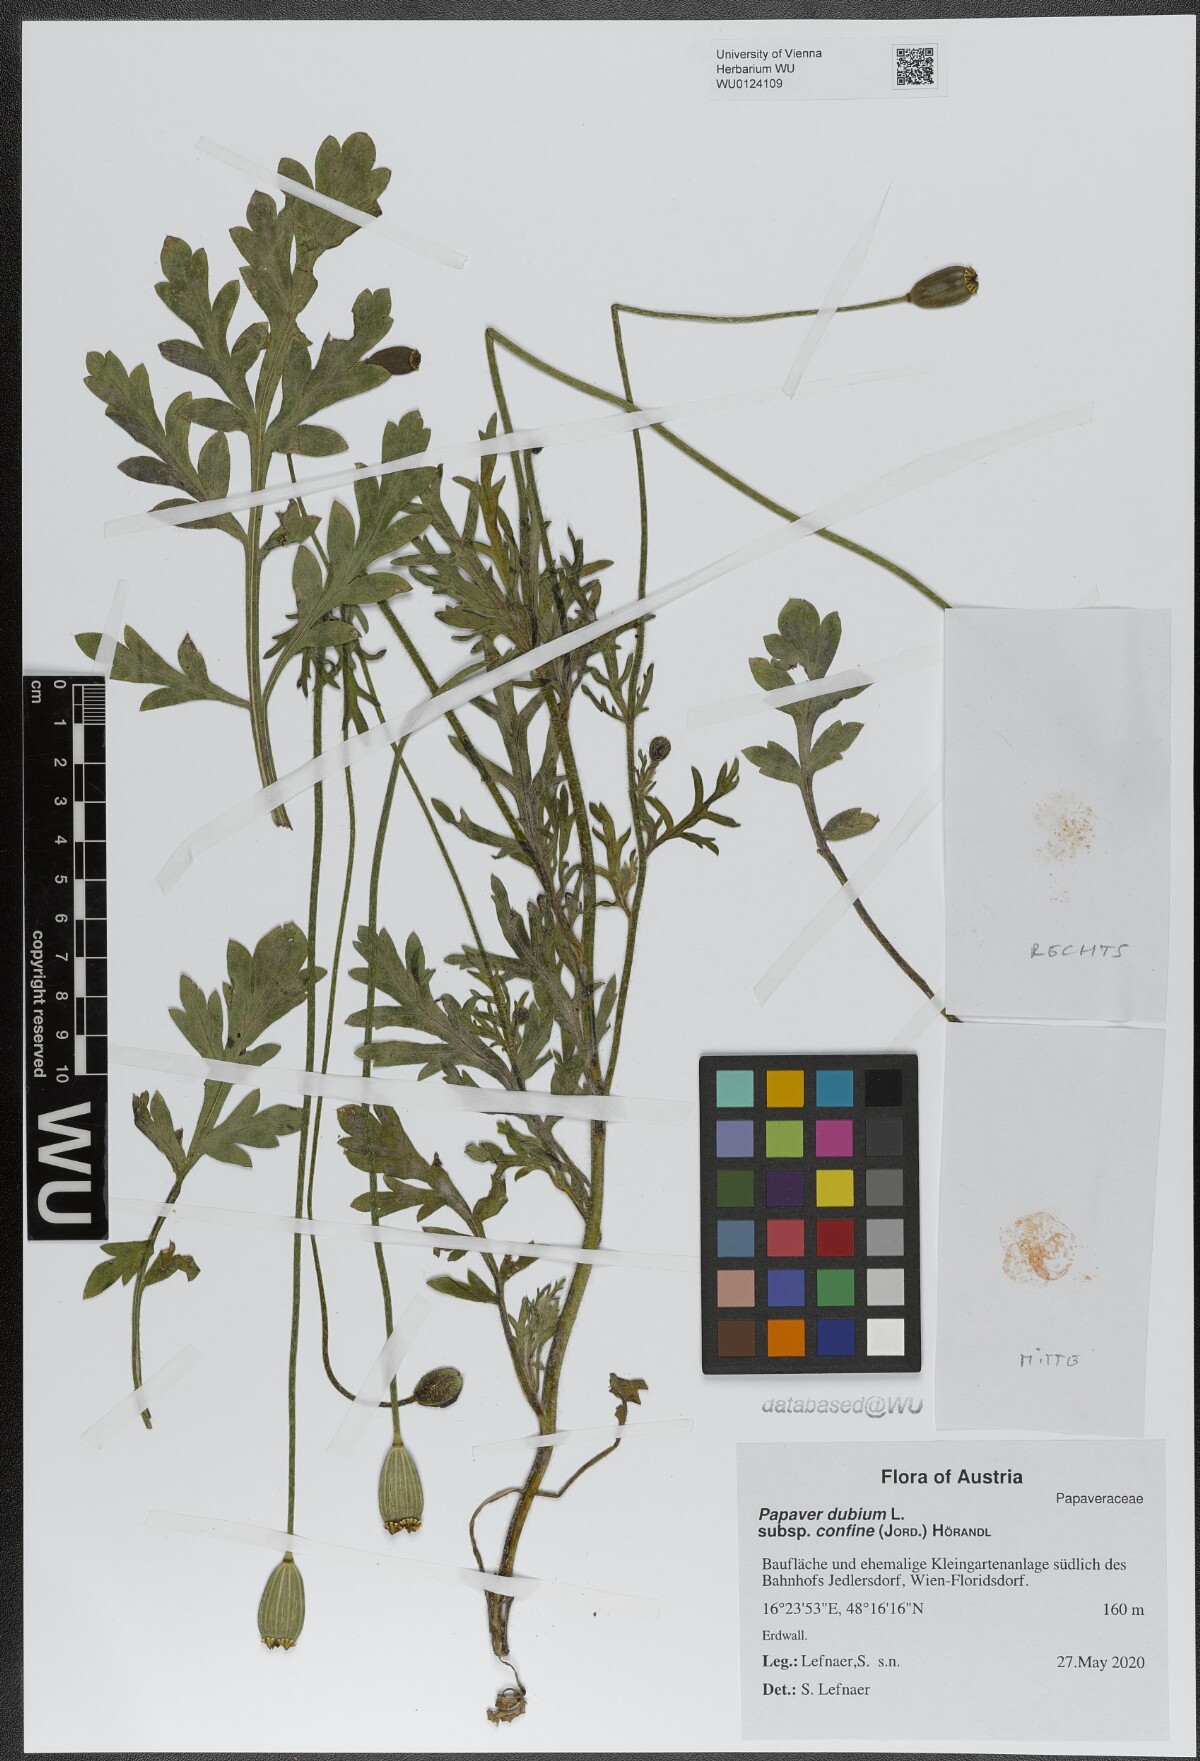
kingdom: Plantae
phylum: Tracheophyta
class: Magnoliopsida
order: Ranunculales
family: Papaveraceae
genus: Papaver
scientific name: Papaver confine
